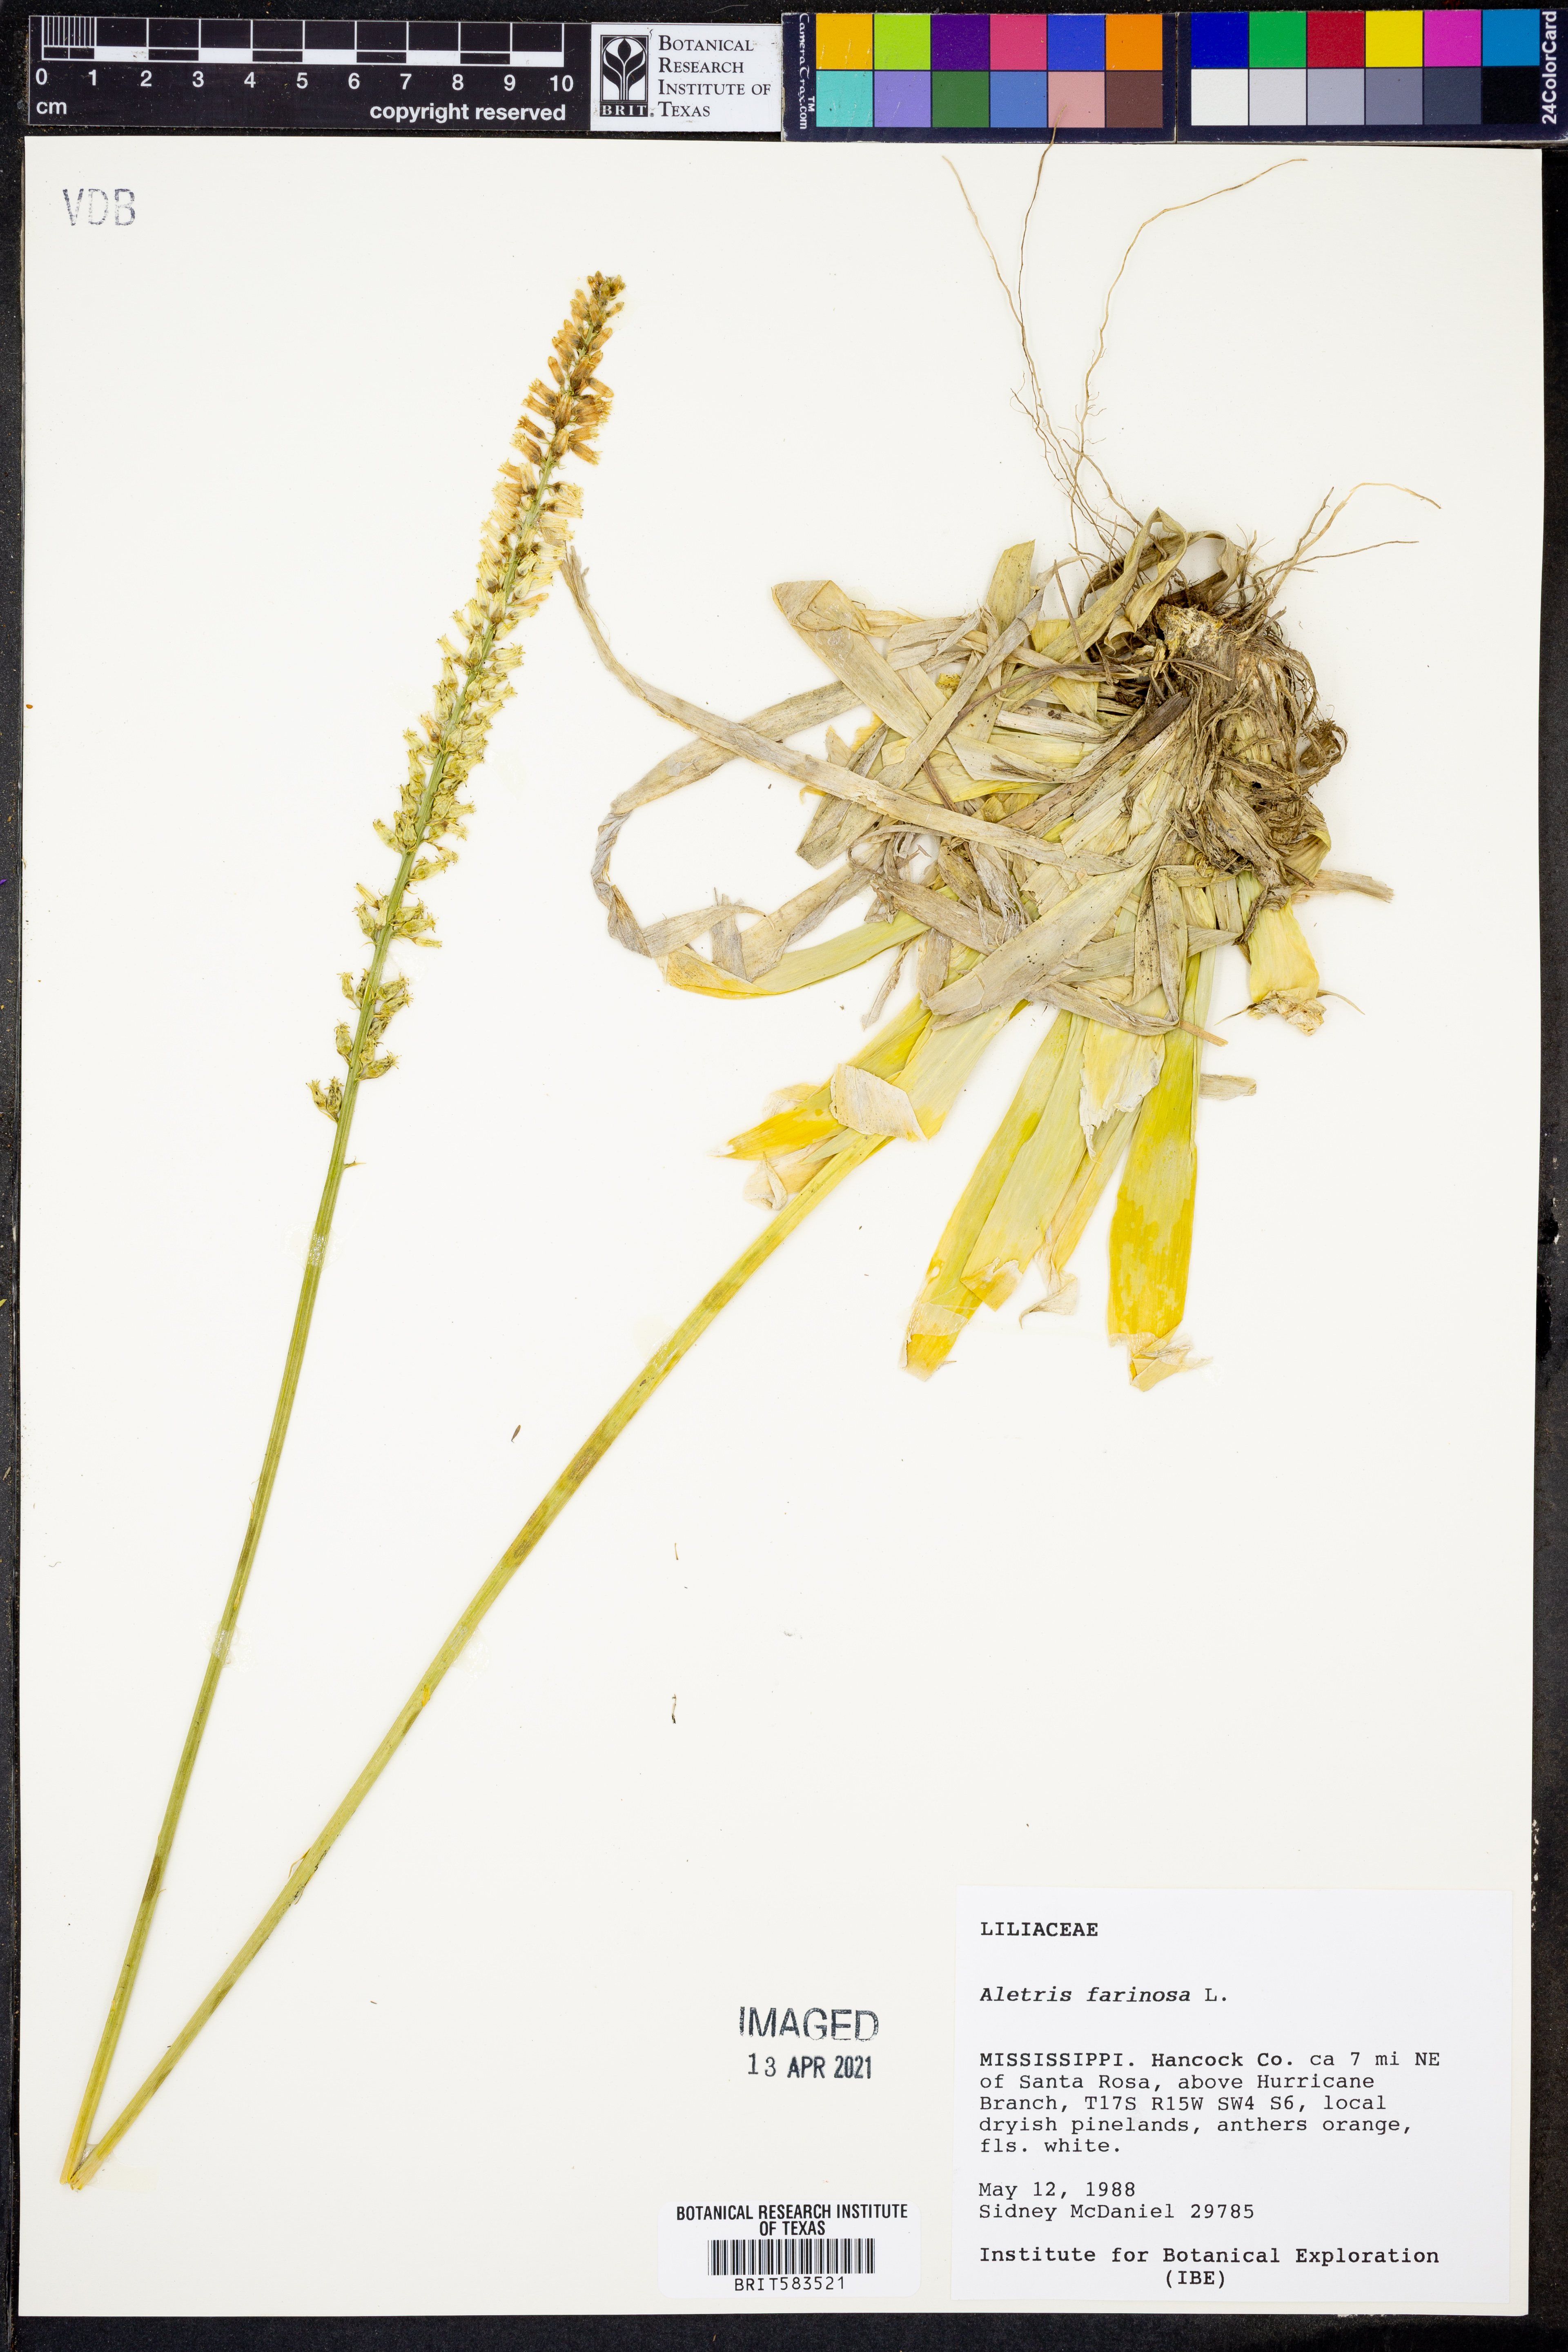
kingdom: Plantae
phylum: Tracheophyta
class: Liliopsida
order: Dioscoreales
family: Nartheciaceae
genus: Aletris
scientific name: Aletris farinosa
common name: Colicroot
